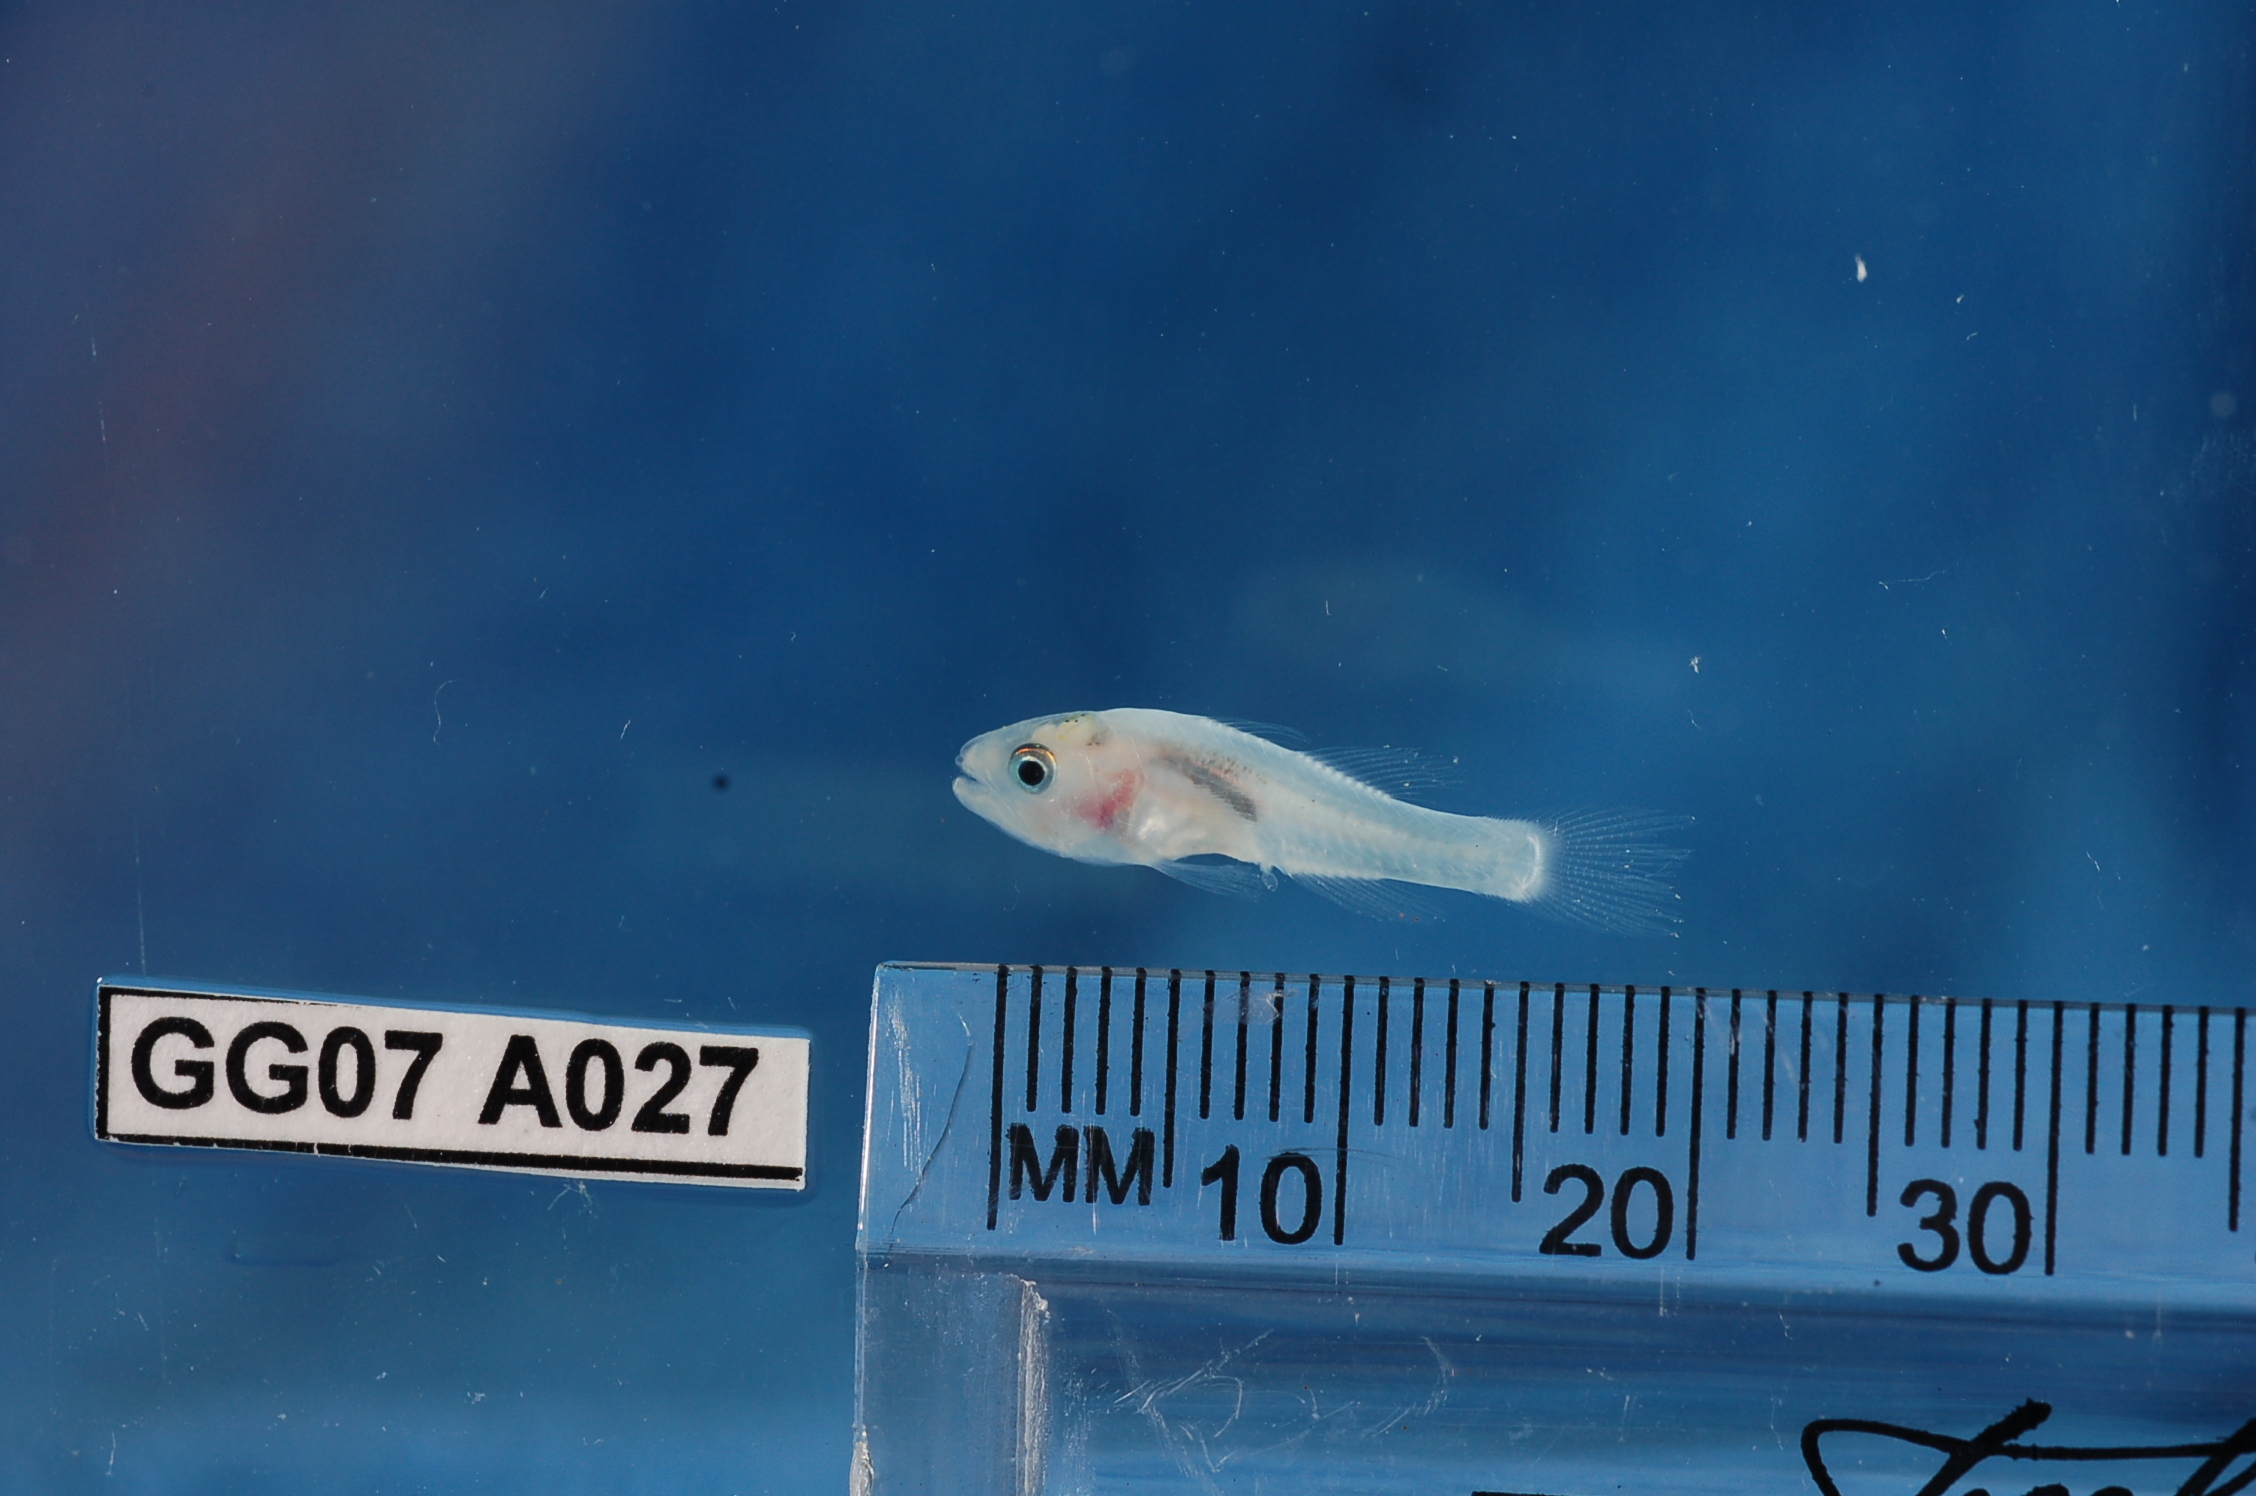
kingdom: Animalia
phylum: Chordata
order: Perciformes
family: Apogonidae
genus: Apogon
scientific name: Apogon
